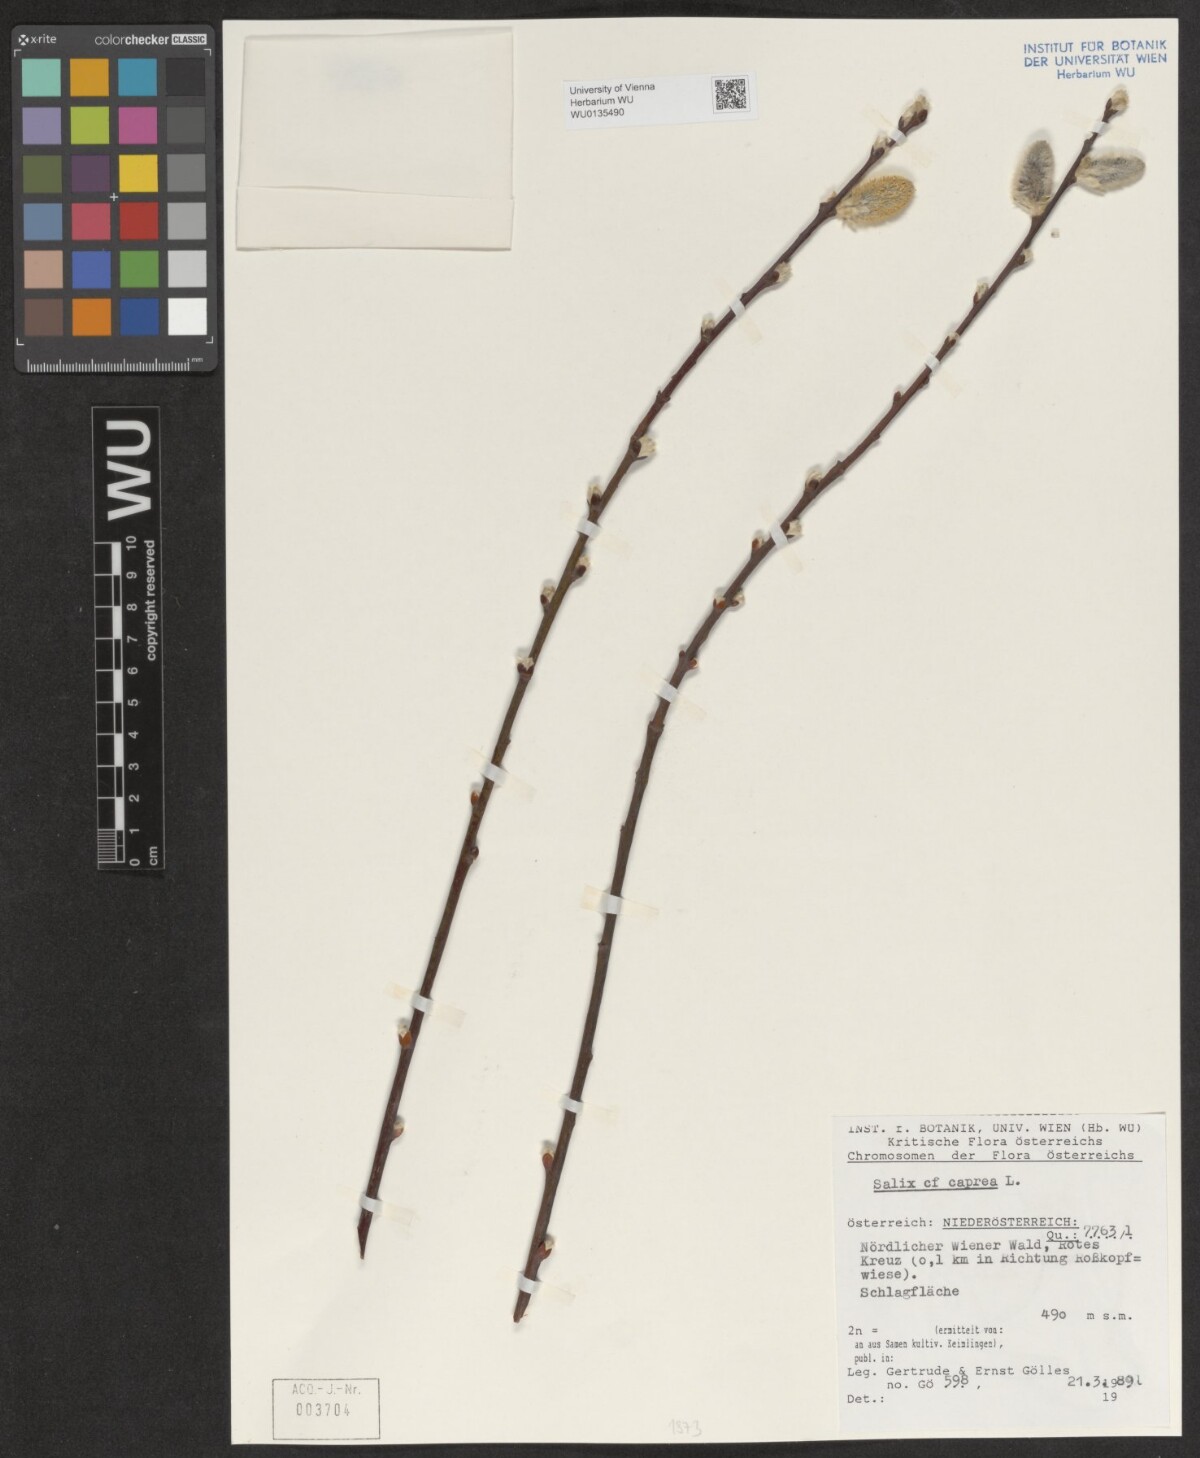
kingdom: Plantae
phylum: Tracheophyta
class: Magnoliopsida
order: Malpighiales
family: Salicaceae
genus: Salix
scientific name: Salix caprea
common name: Goat willow
